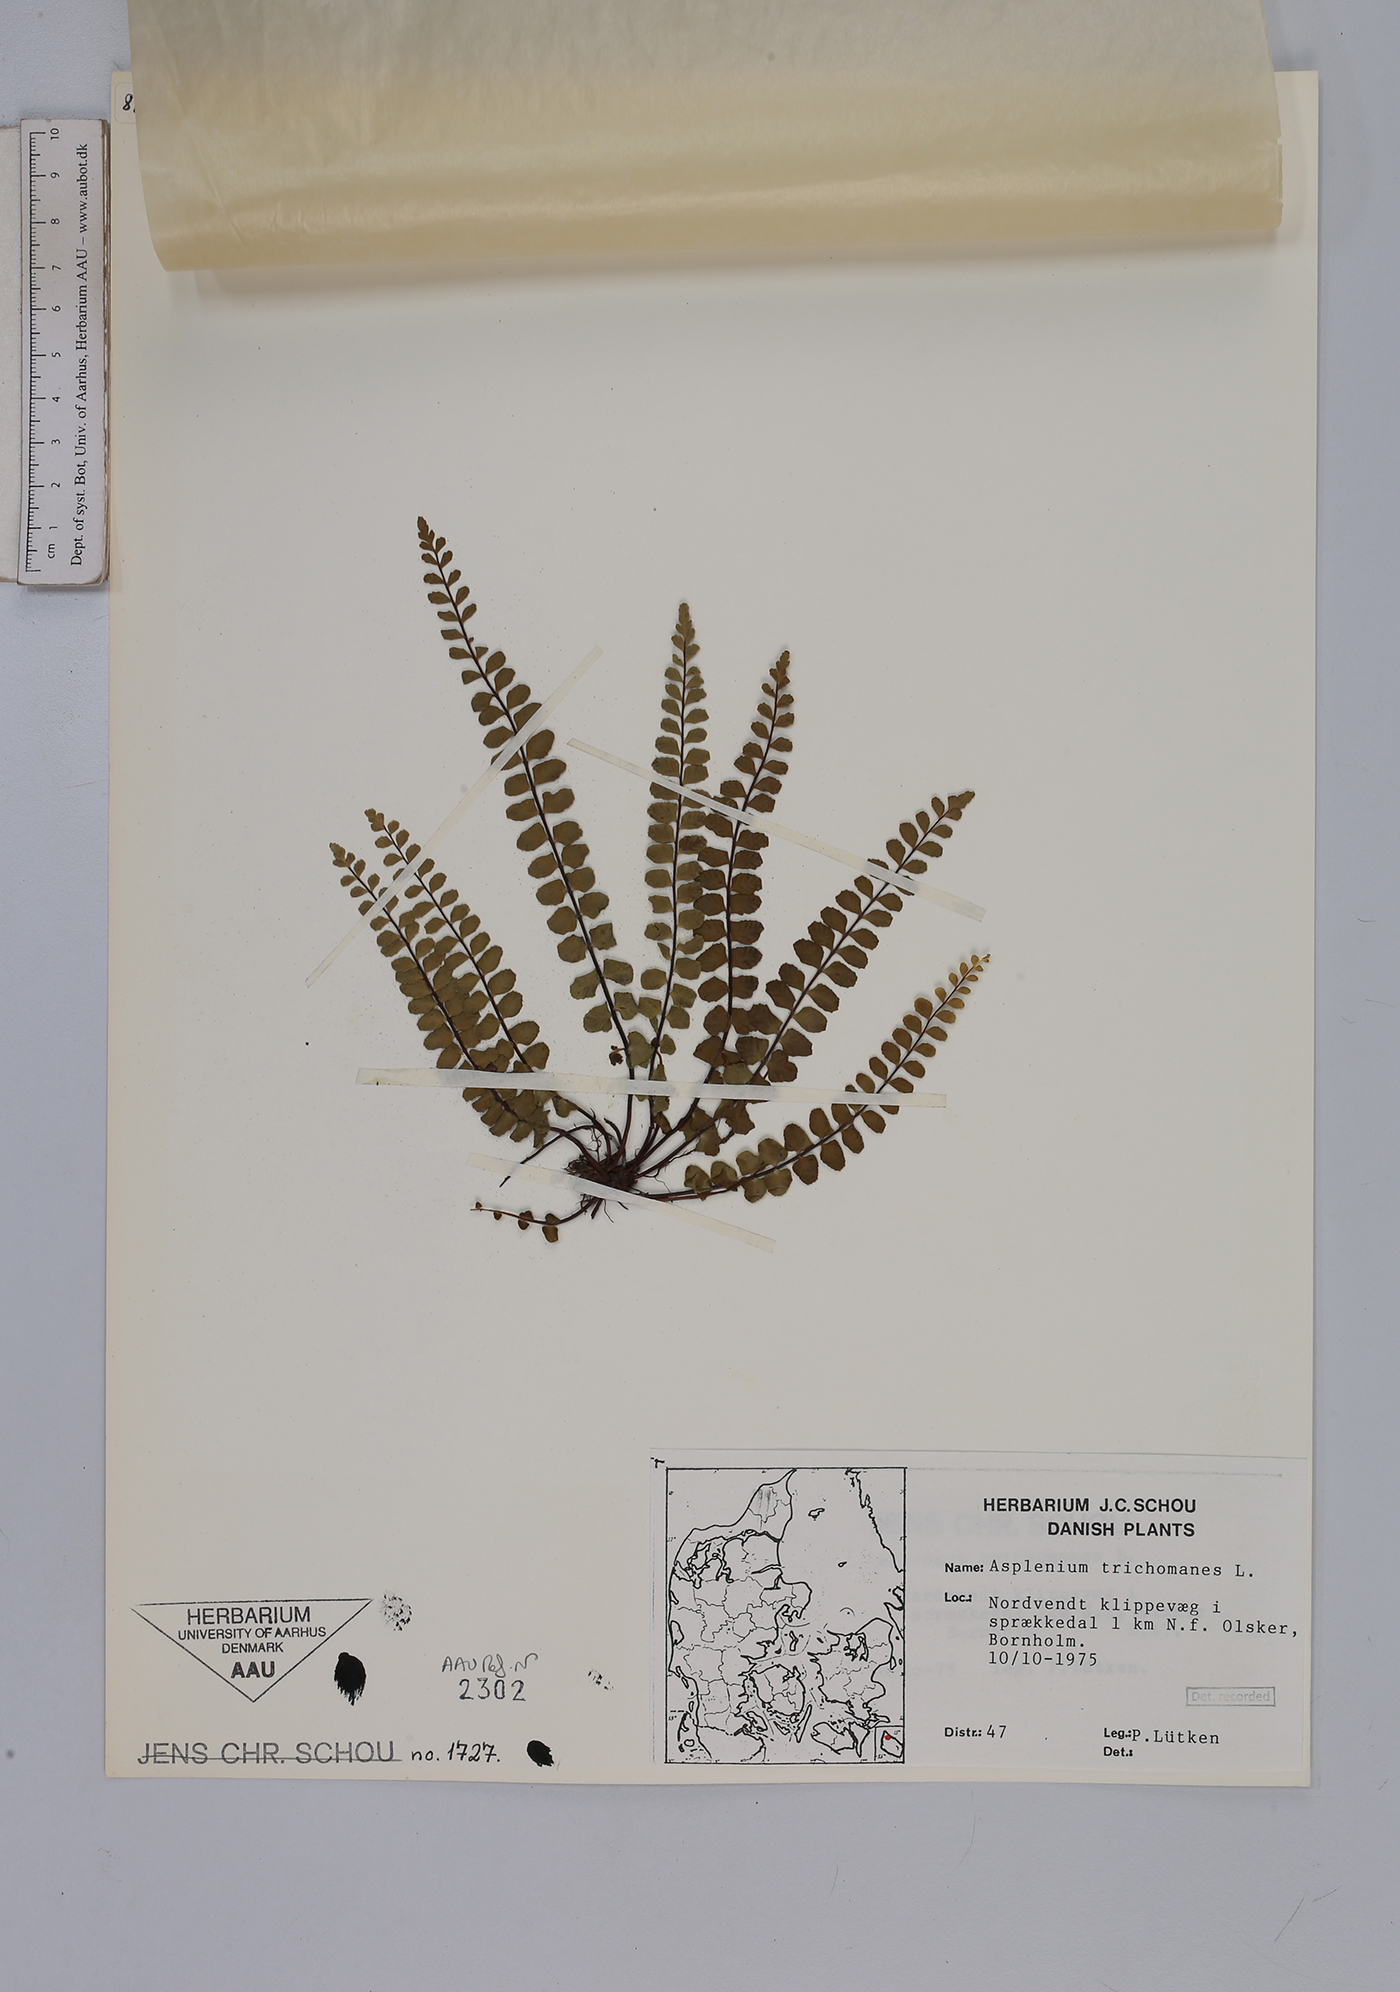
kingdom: Plantae
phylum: Tracheophyta
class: Polypodiopsida
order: Polypodiales
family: Aspleniaceae
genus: Asplenium
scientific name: Asplenium trichomanes
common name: Maidenhair spleenwort
